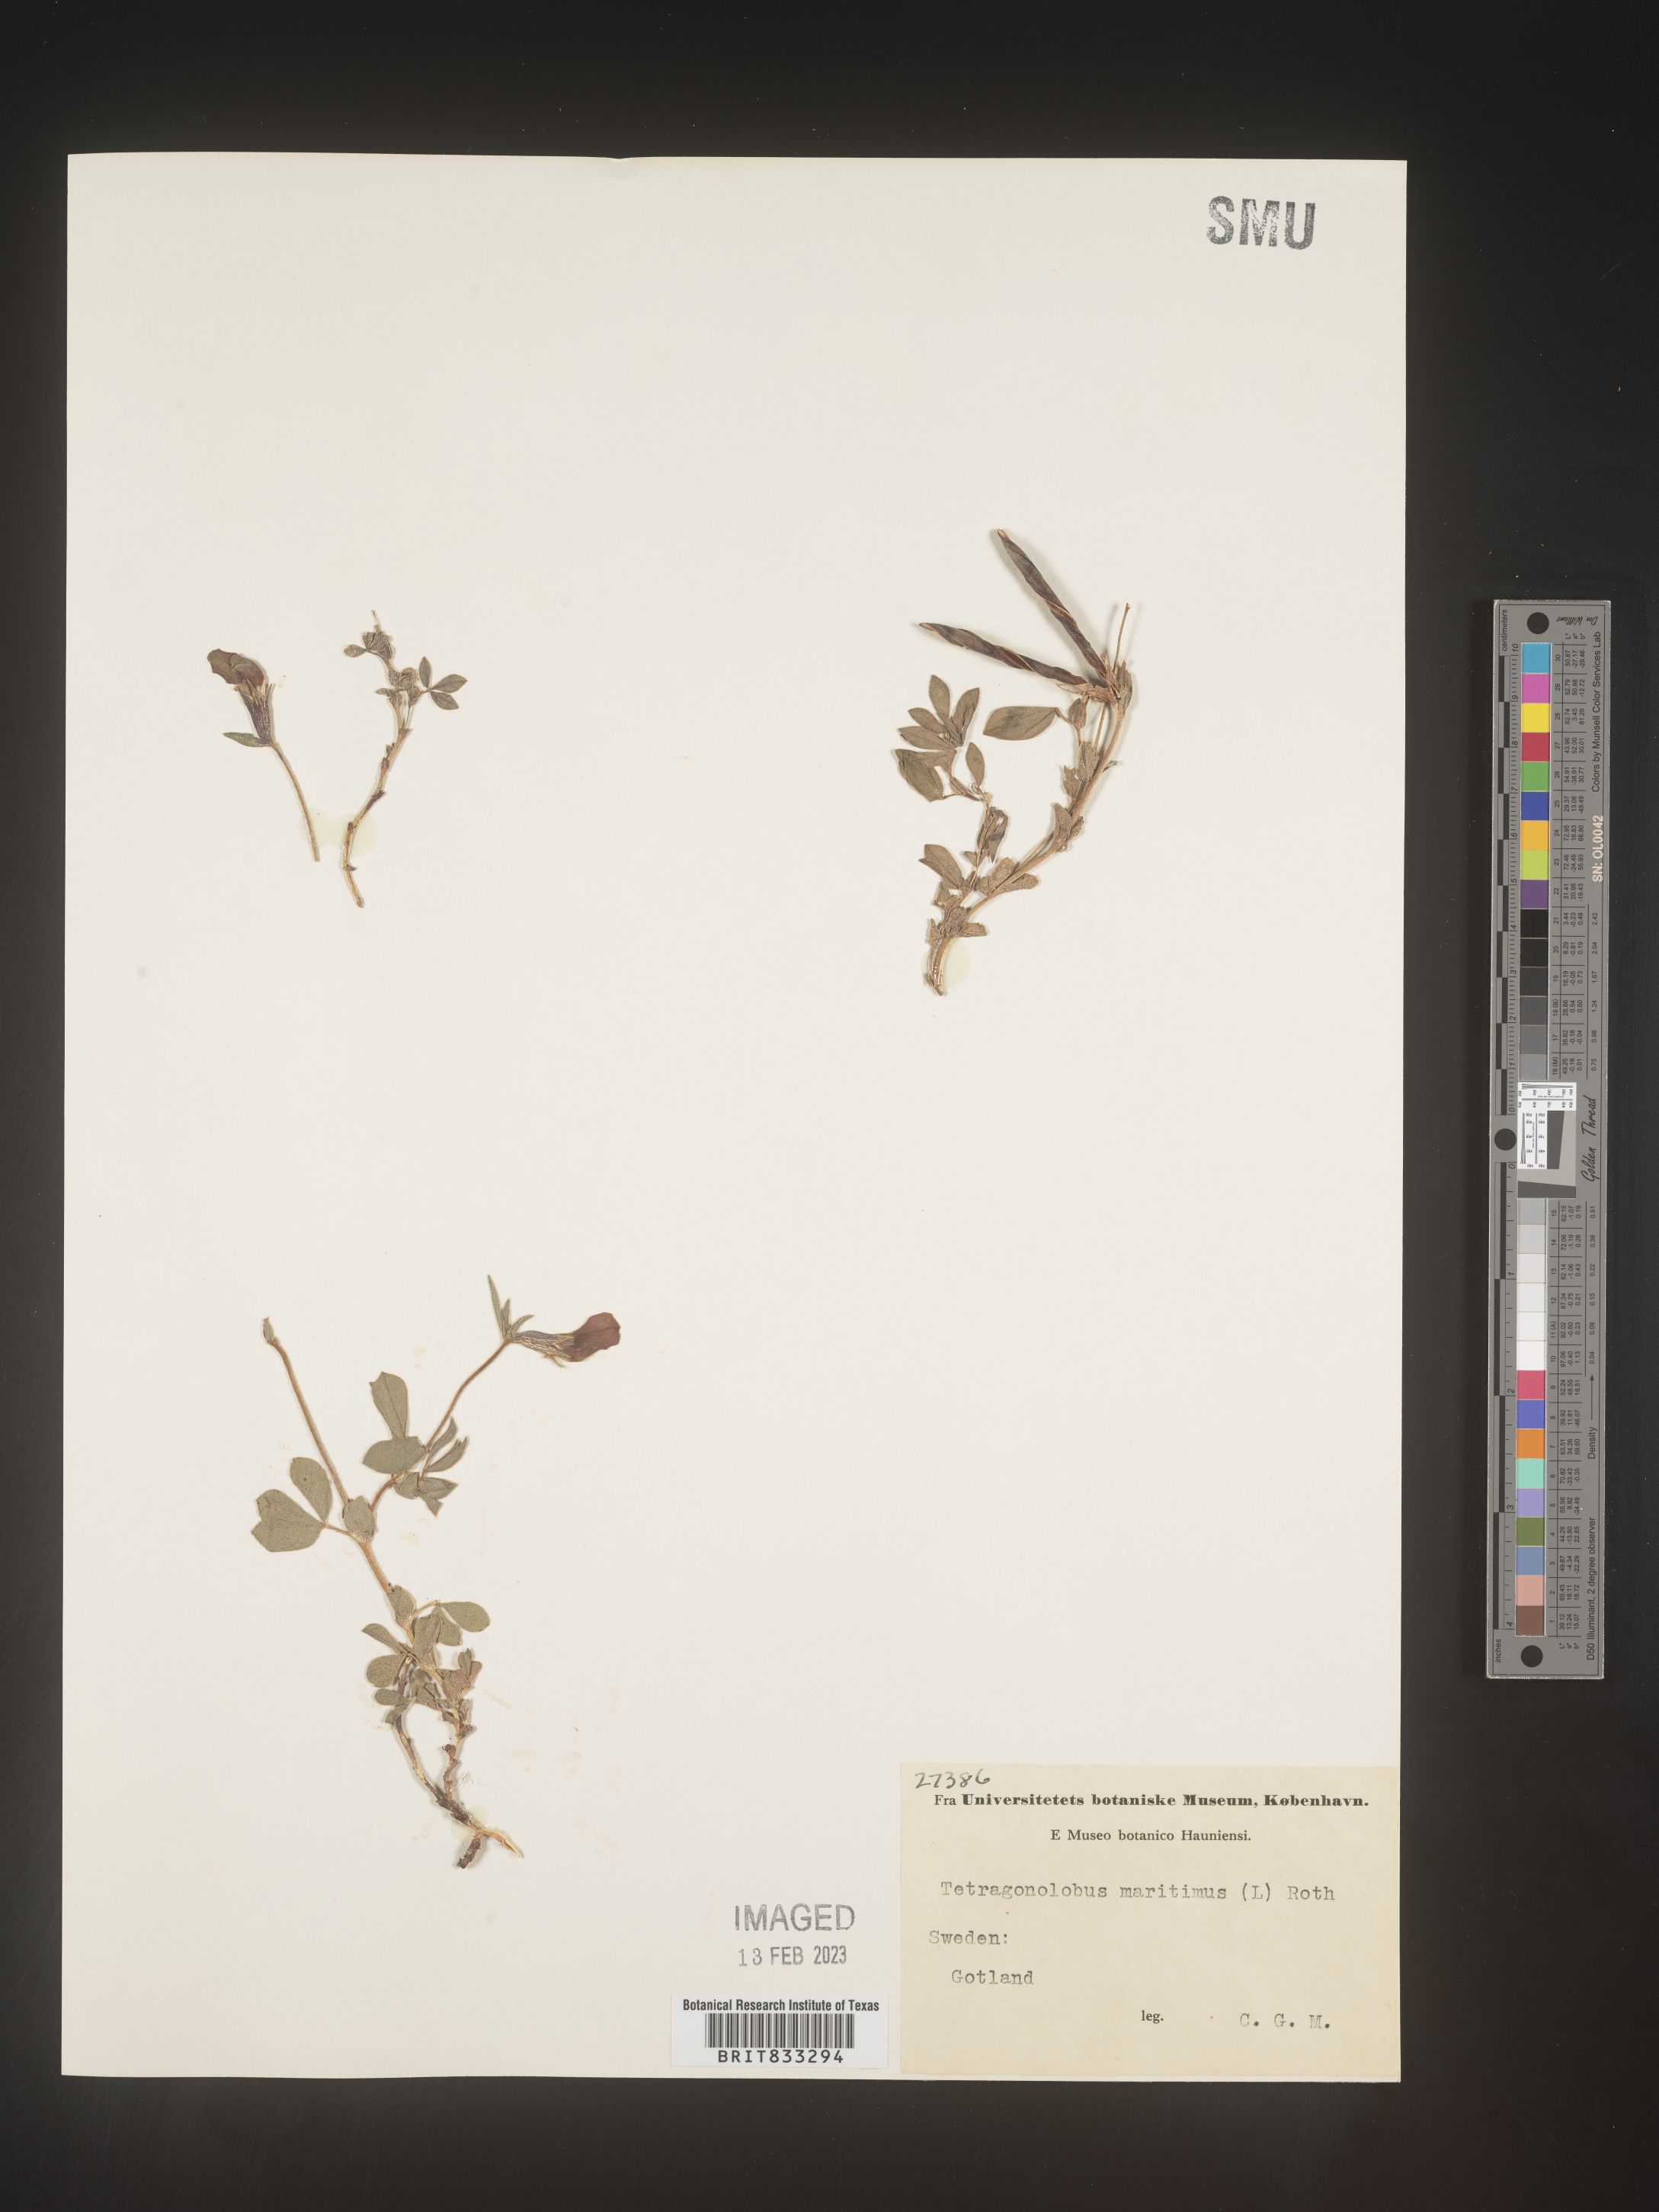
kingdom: Plantae
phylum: Tracheophyta
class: Magnoliopsida
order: Fabales
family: Fabaceae
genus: Lotus
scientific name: Lotus
